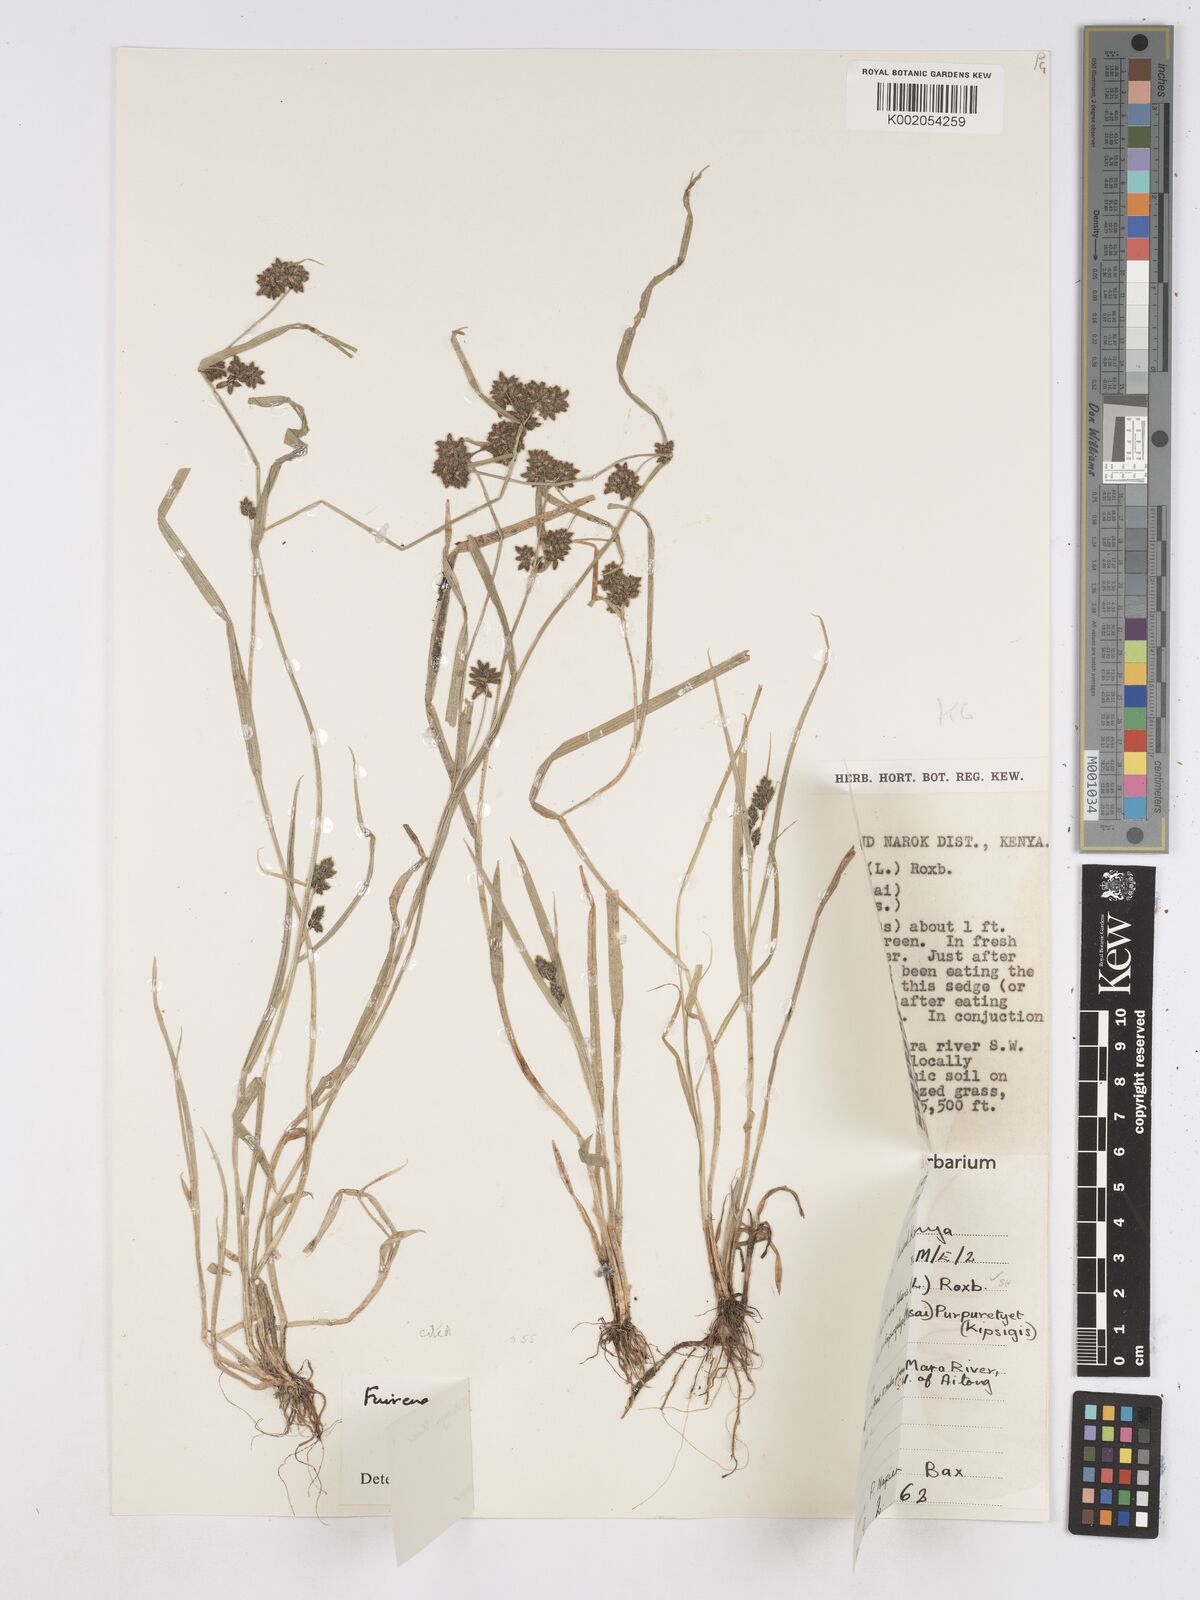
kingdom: Plantae
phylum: Tracheophyta
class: Liliopsida
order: Poales
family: Cyperaceae
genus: Fuirena
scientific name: Fuirena leptostachya
